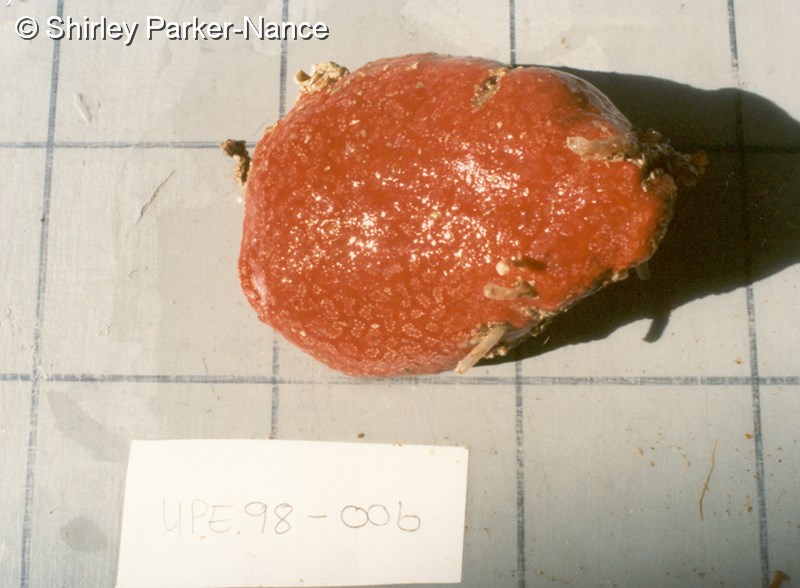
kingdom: Animalia
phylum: Chordata
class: Ascidiacea
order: Aplousobranchia
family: Polyclinidae
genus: Aplidium
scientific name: Aplidium flavolineatum
